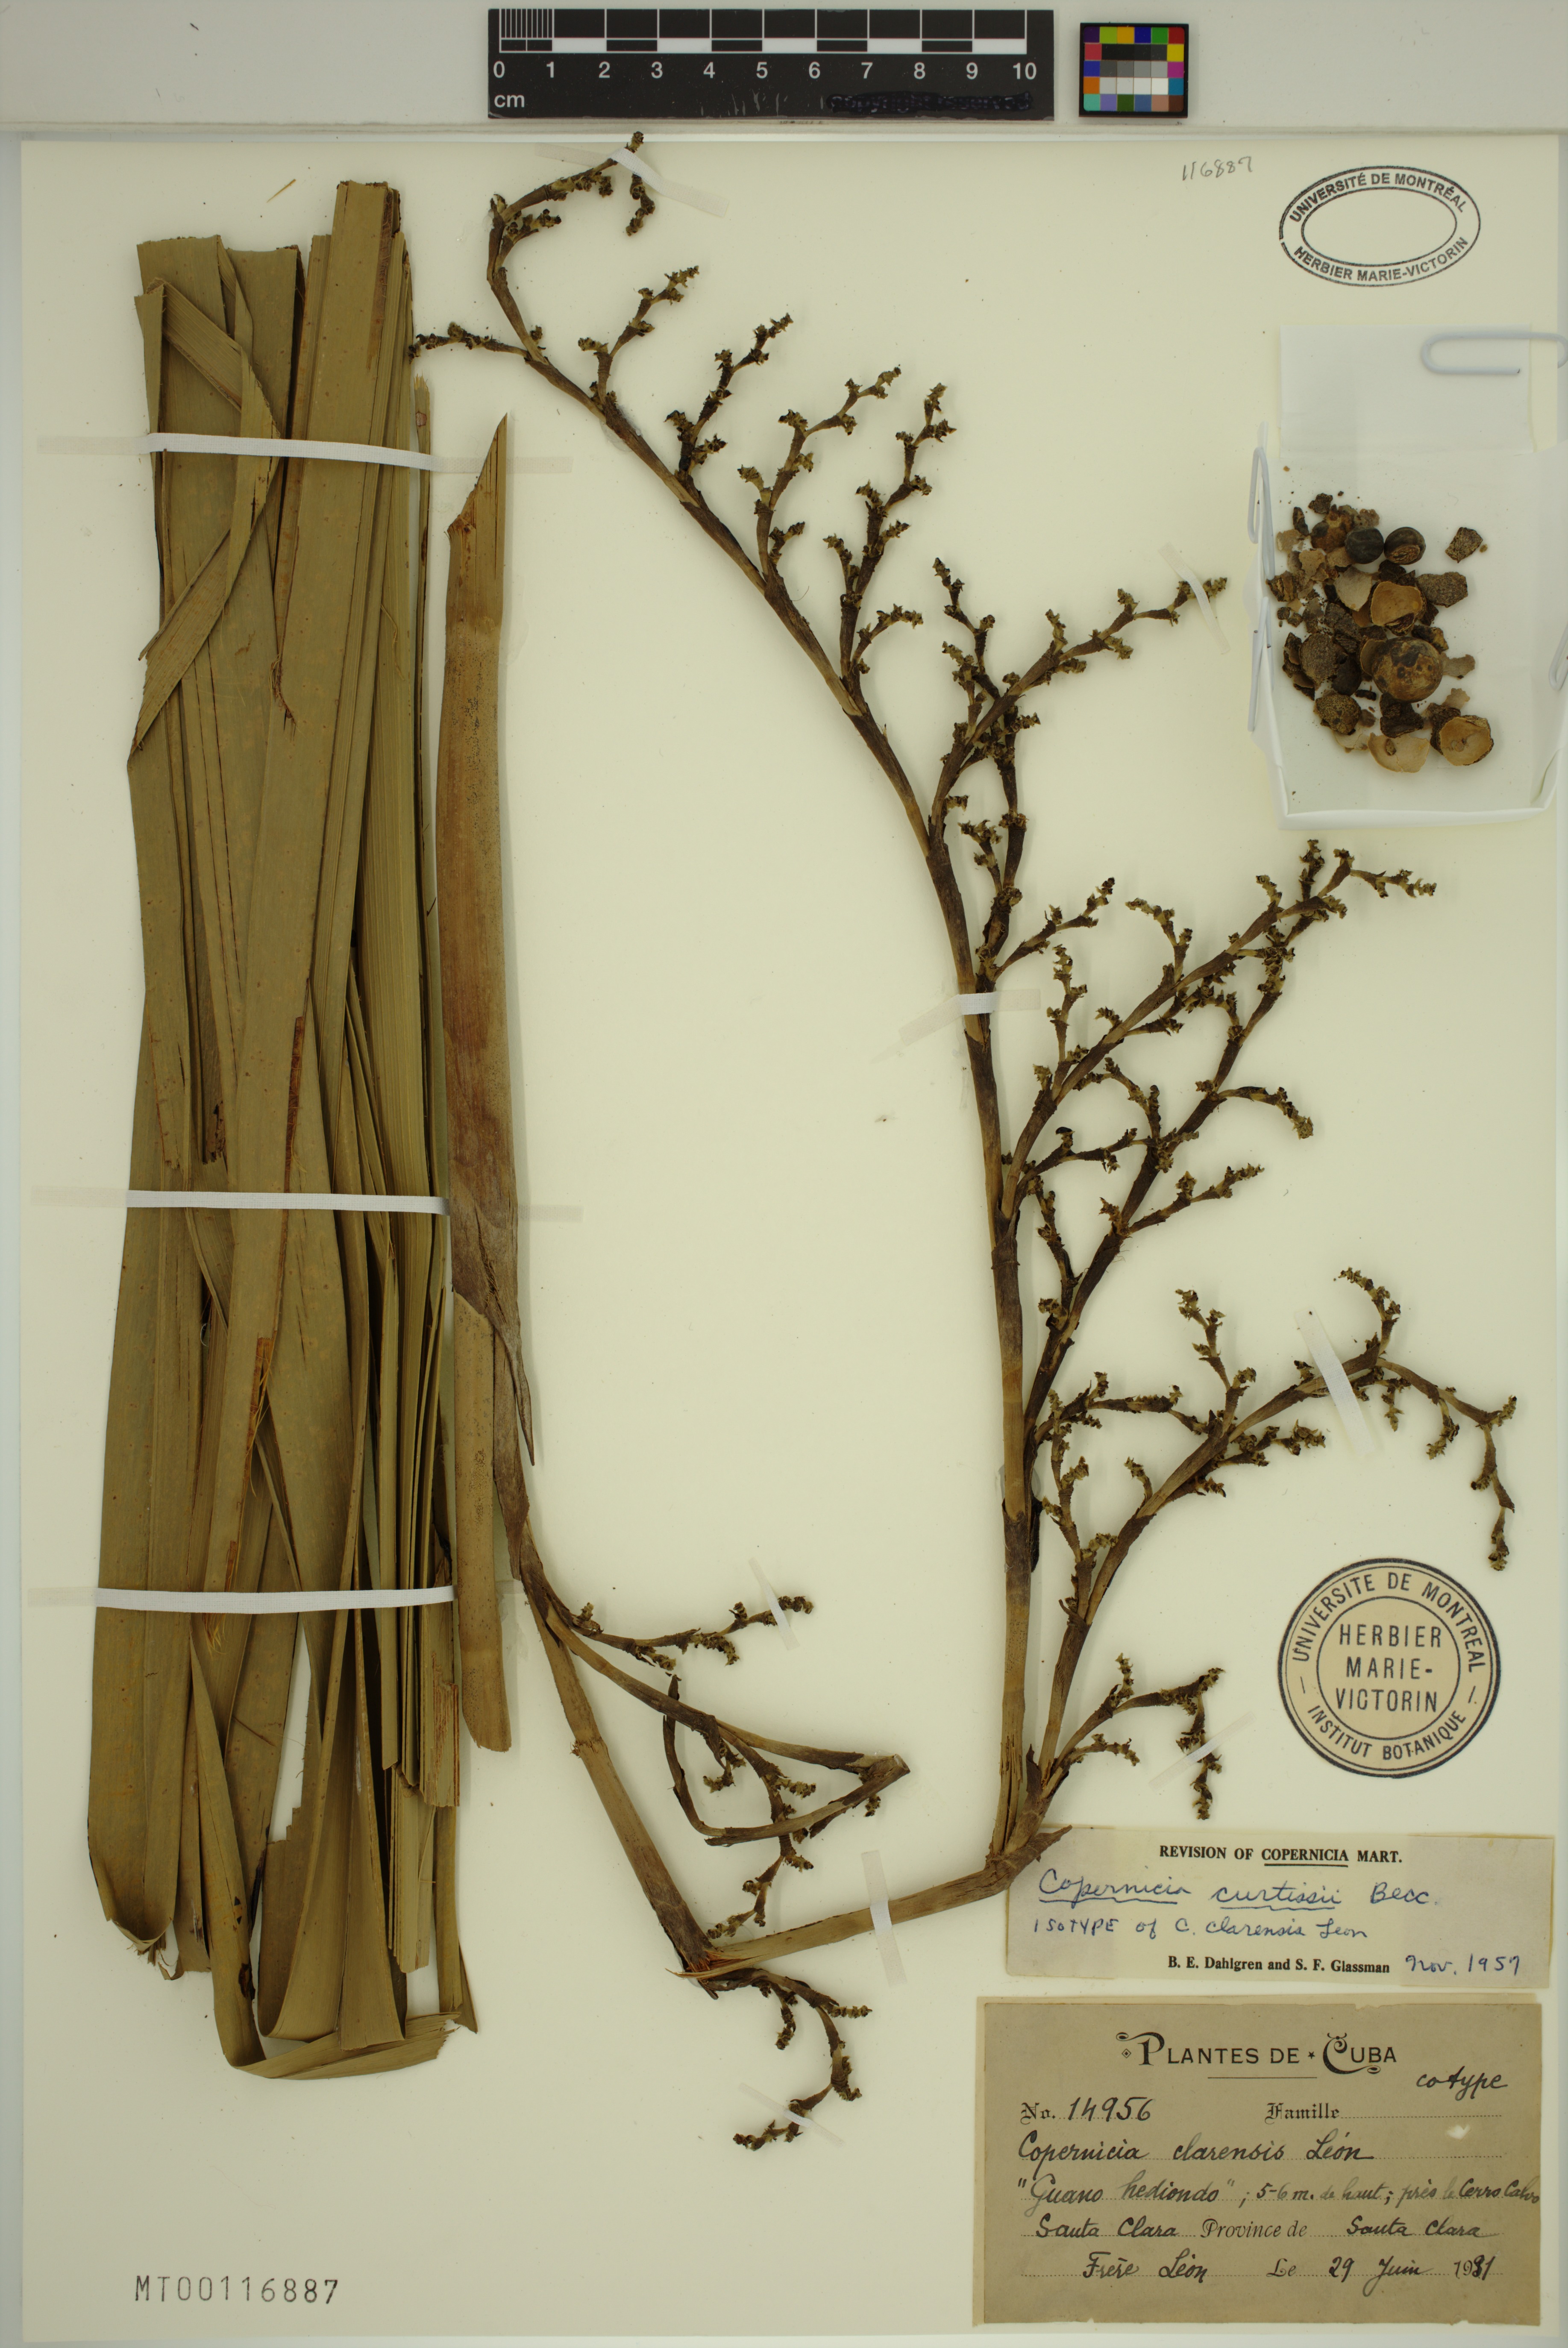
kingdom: Plantae
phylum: Tracheophyta
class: Liliopsida
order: Arecales
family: Arecaceae
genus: Copernicia
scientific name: Copernicia curtissii
